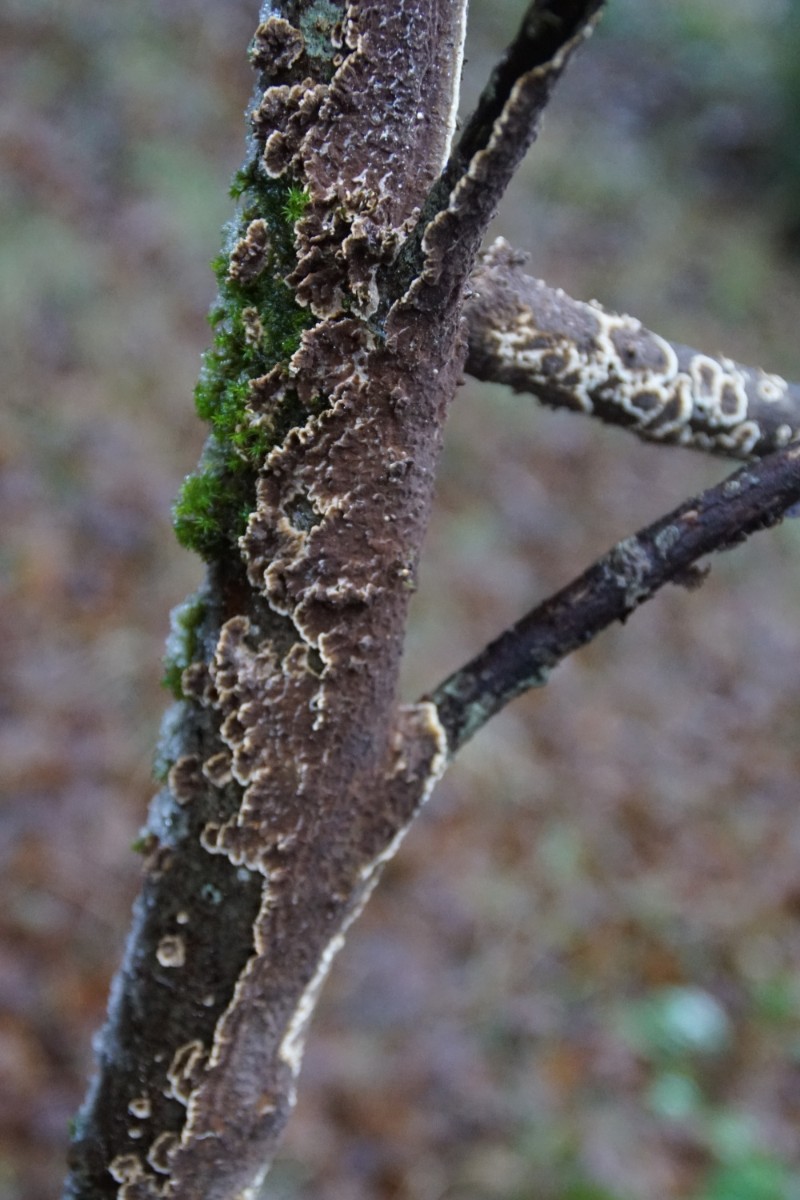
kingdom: Fungi
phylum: Basidiomycota
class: Agaricomycetes
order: Hymenochaetales
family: Hymenochaetaceae
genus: Hydnoporia
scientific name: Hydnoporia tabacina
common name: tobaksbrun ruslædersvamp
